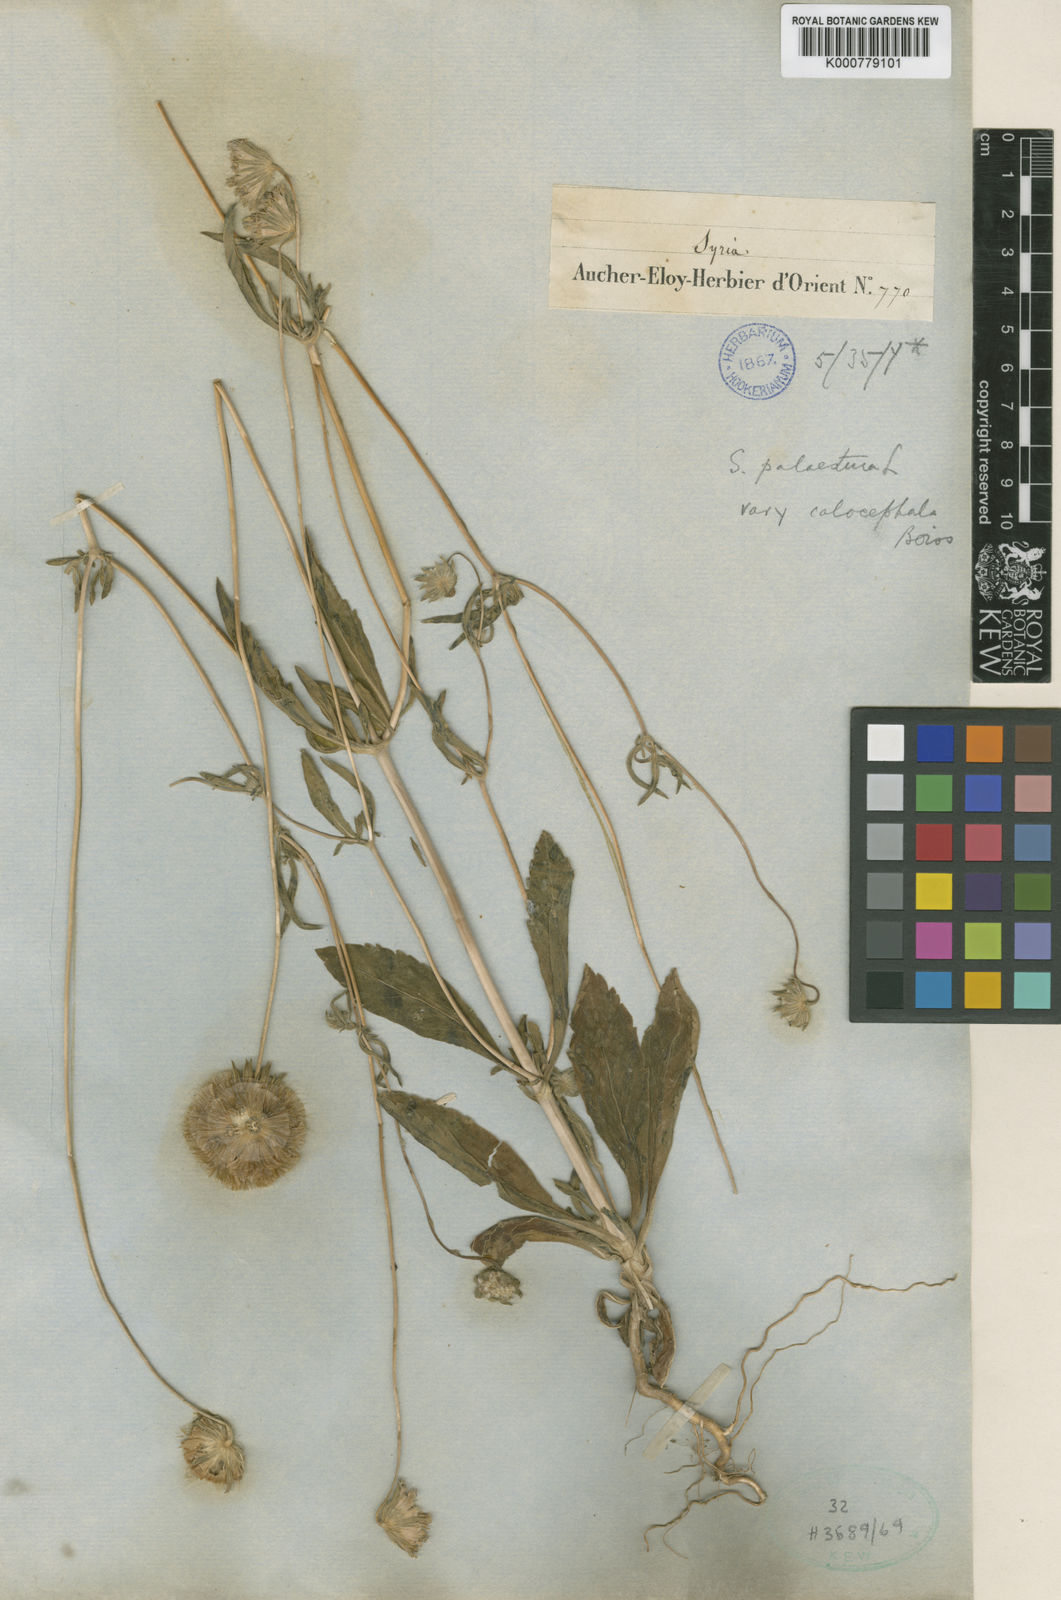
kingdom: Plantae
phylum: Tracheophyta
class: Magnoliopsida
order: Dipsacales
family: Caprifoliaceae
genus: Lomelosia
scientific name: Lomelosia palaestina
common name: Balkan pincushions
